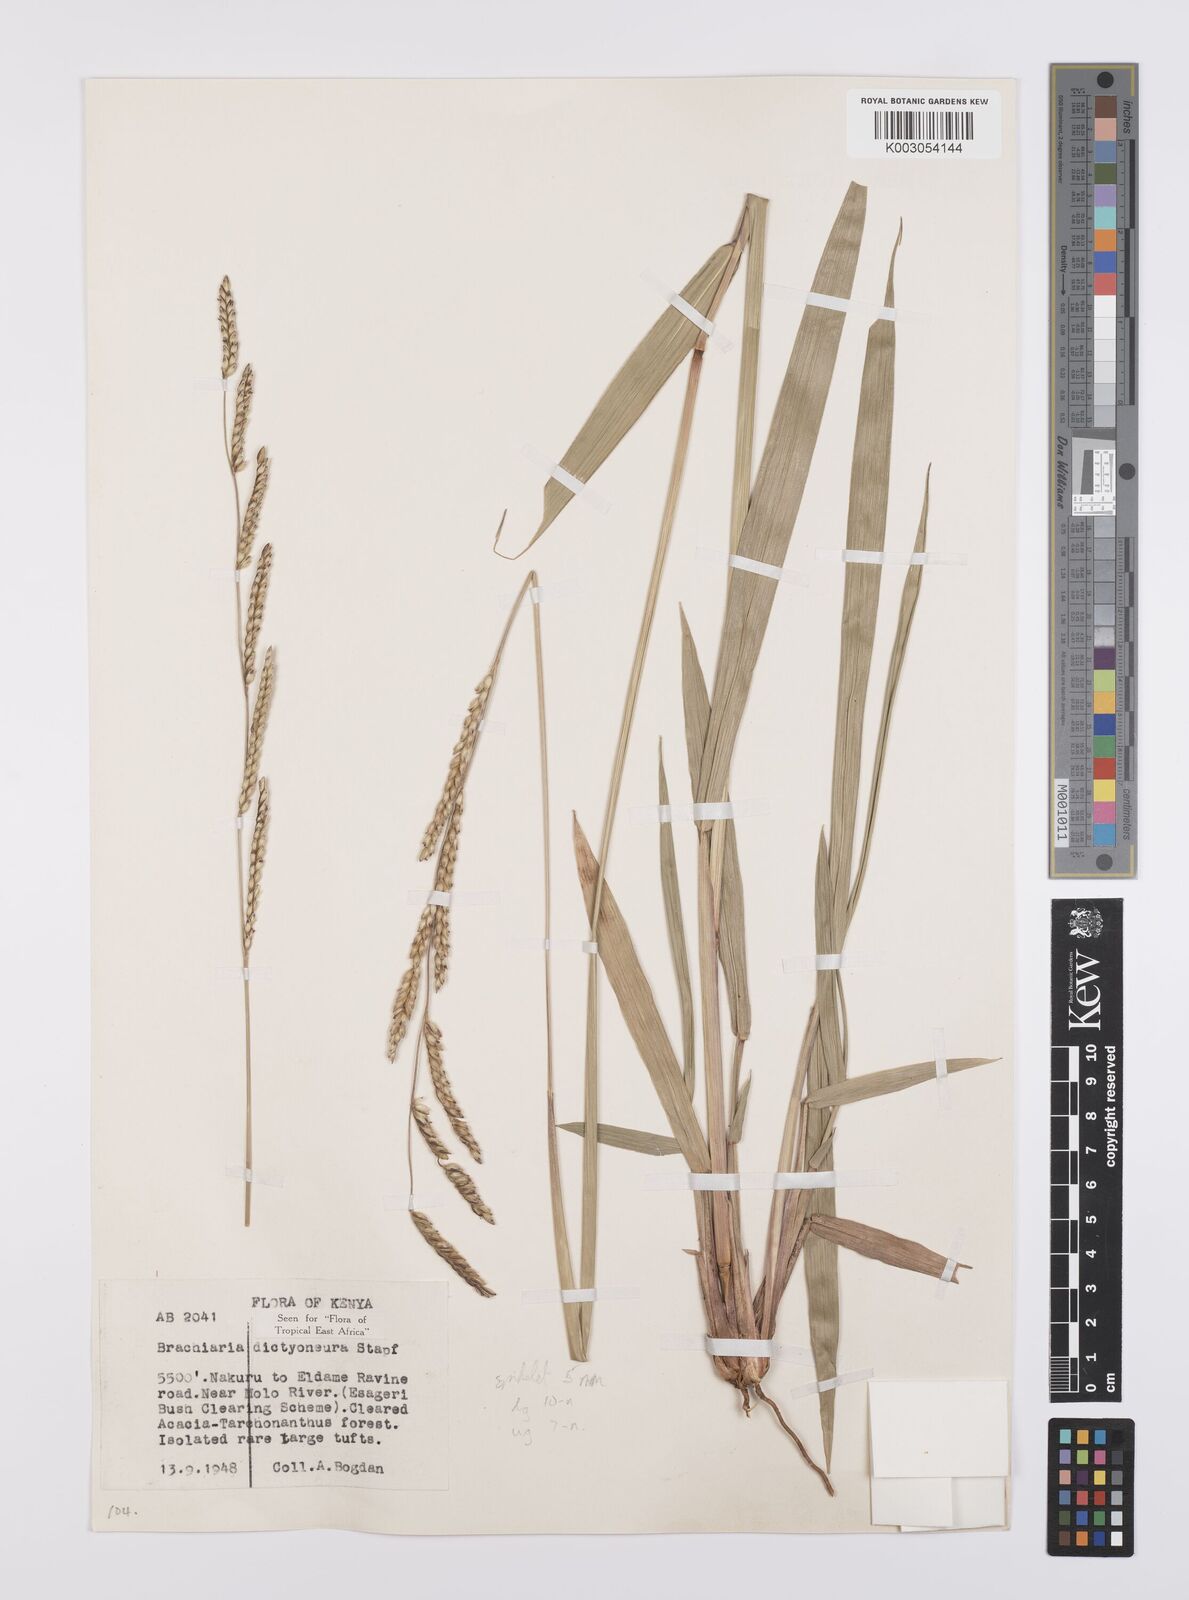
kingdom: Plantae
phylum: Tracheophyta
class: Liliopsida
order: Poales
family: Poaceae
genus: Urochloa
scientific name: Urochloa dictyoneura
